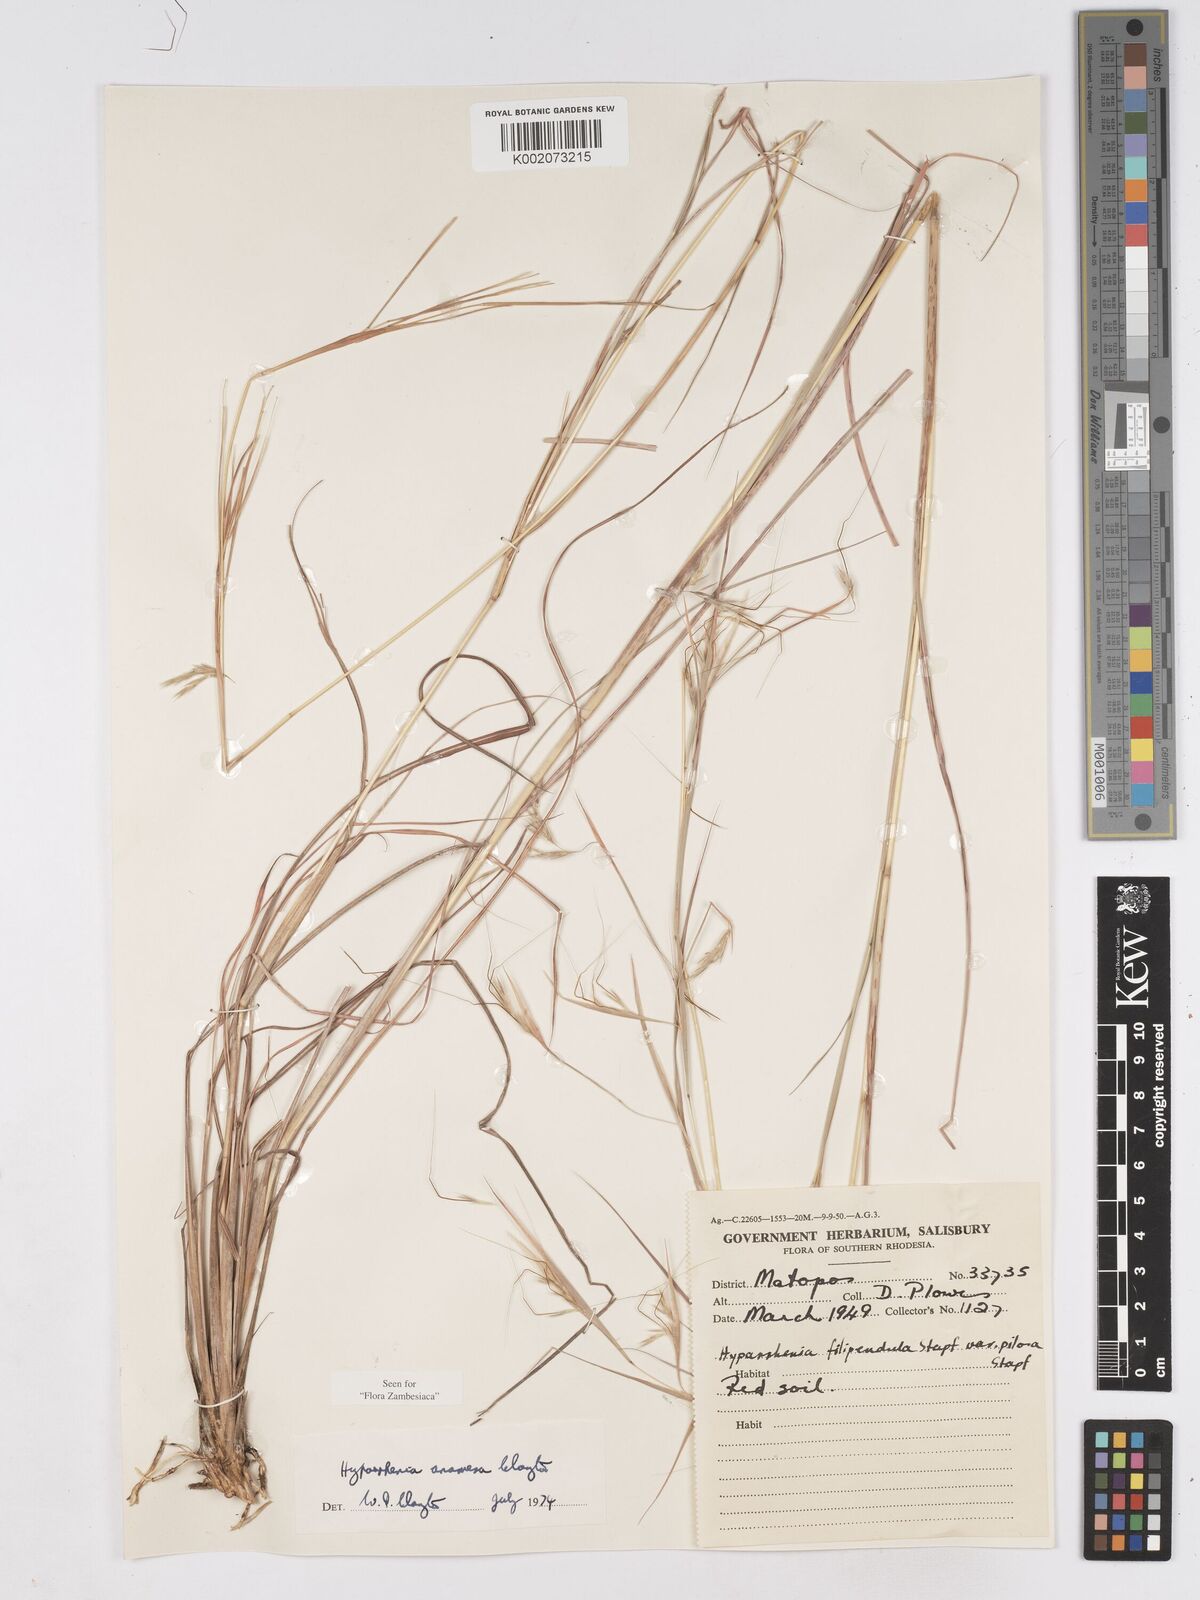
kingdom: Plantae
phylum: Tracheophyta
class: Liliopsida
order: Poales
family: Poaceae
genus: Hyparrhenia
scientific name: Hyparrhenia anamesa
